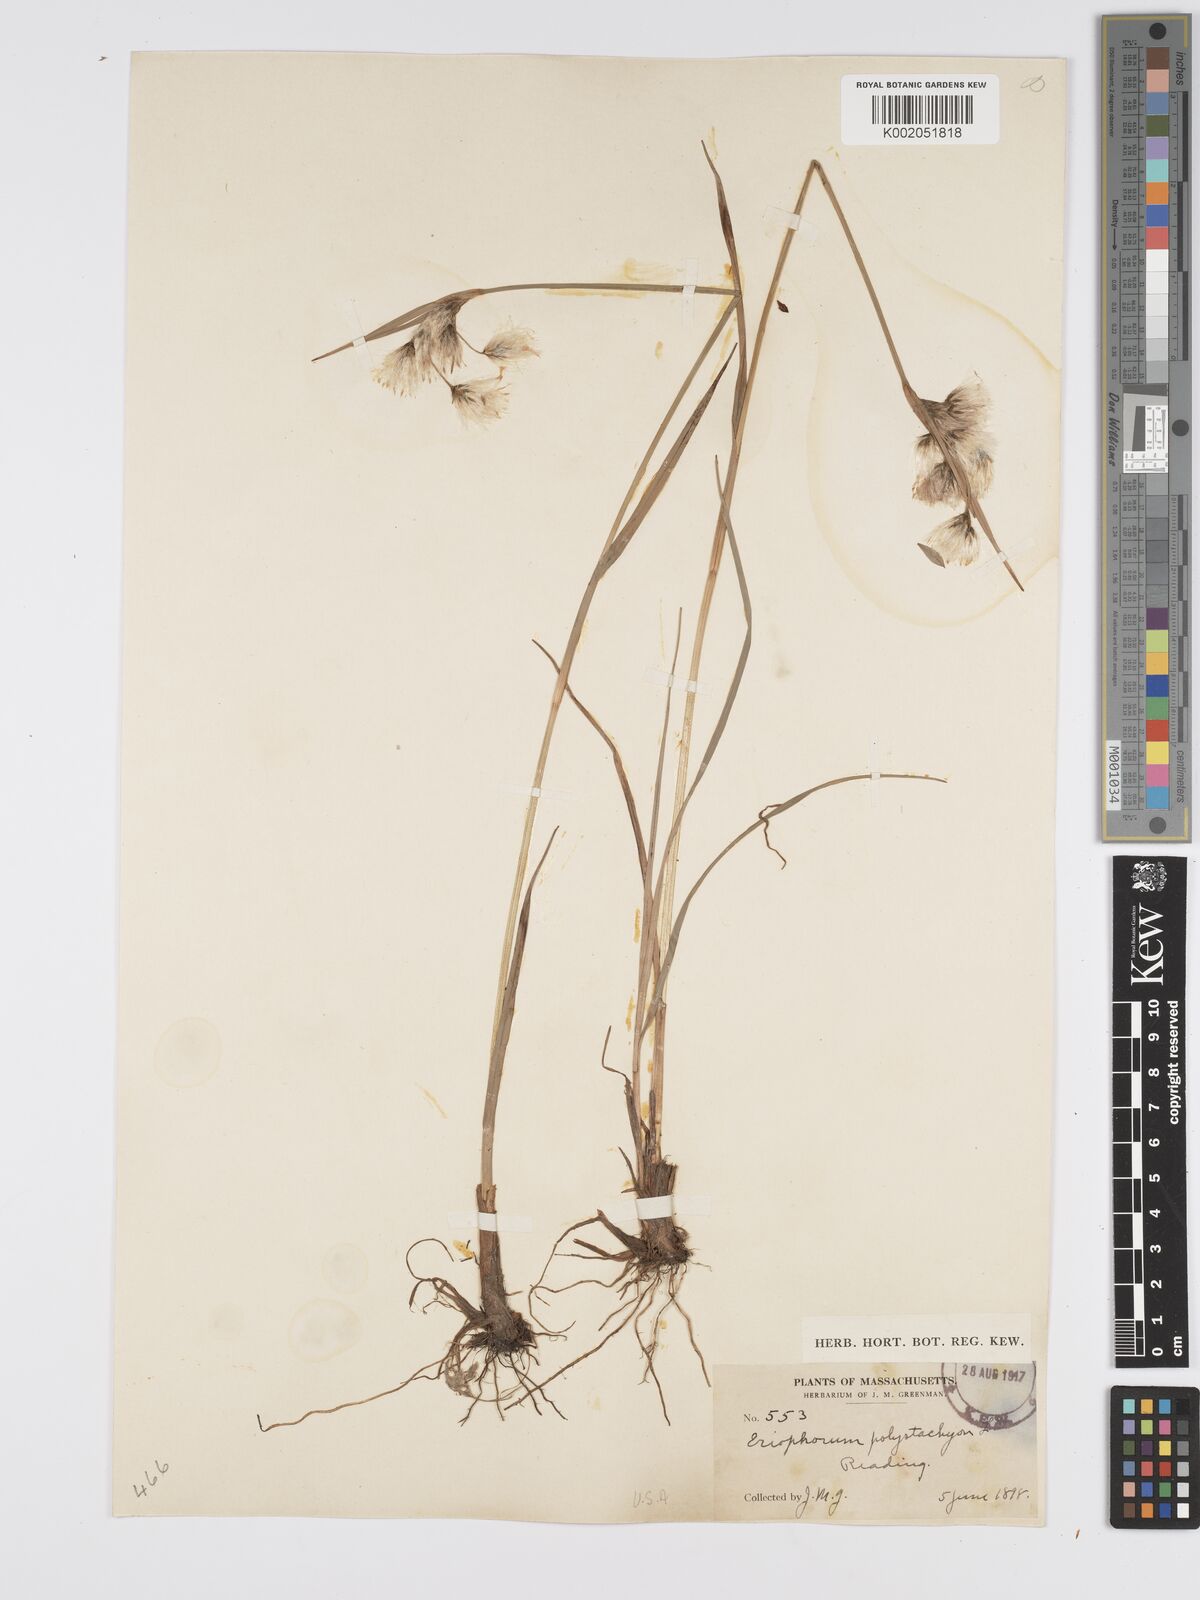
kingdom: Plantae
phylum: Tracheophyta
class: Liliopsida
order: Poales
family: Cyperaceae
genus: Eriophorum
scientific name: Eriophorum angustifolium
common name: Common cottongrass
